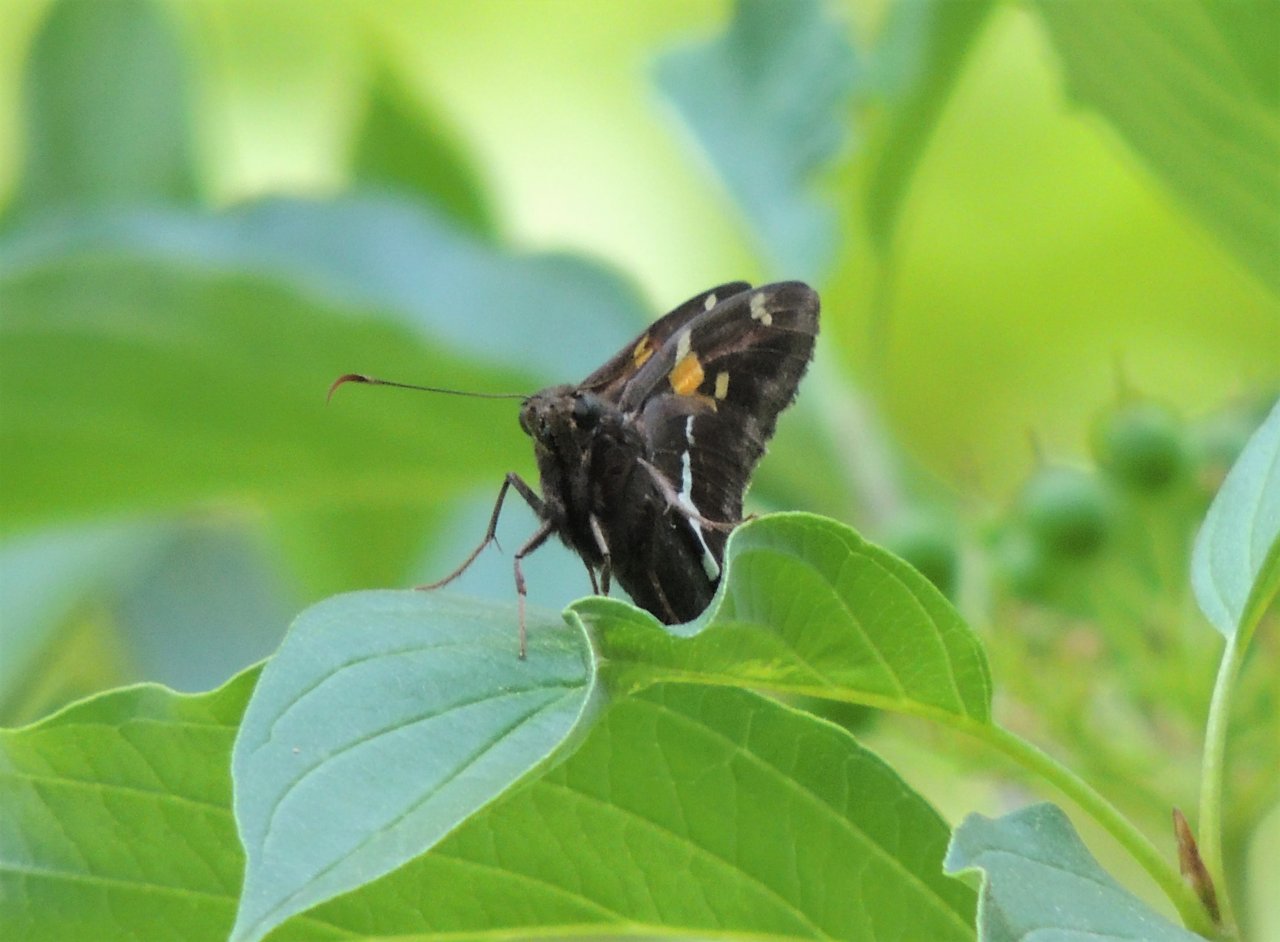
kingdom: Animalia
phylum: Arthropoda
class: Insecta
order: Lepidoptera
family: Hesperiidae
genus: Epargyreus
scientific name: Epargyreus clarus
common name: Silver-spotted Skipper
